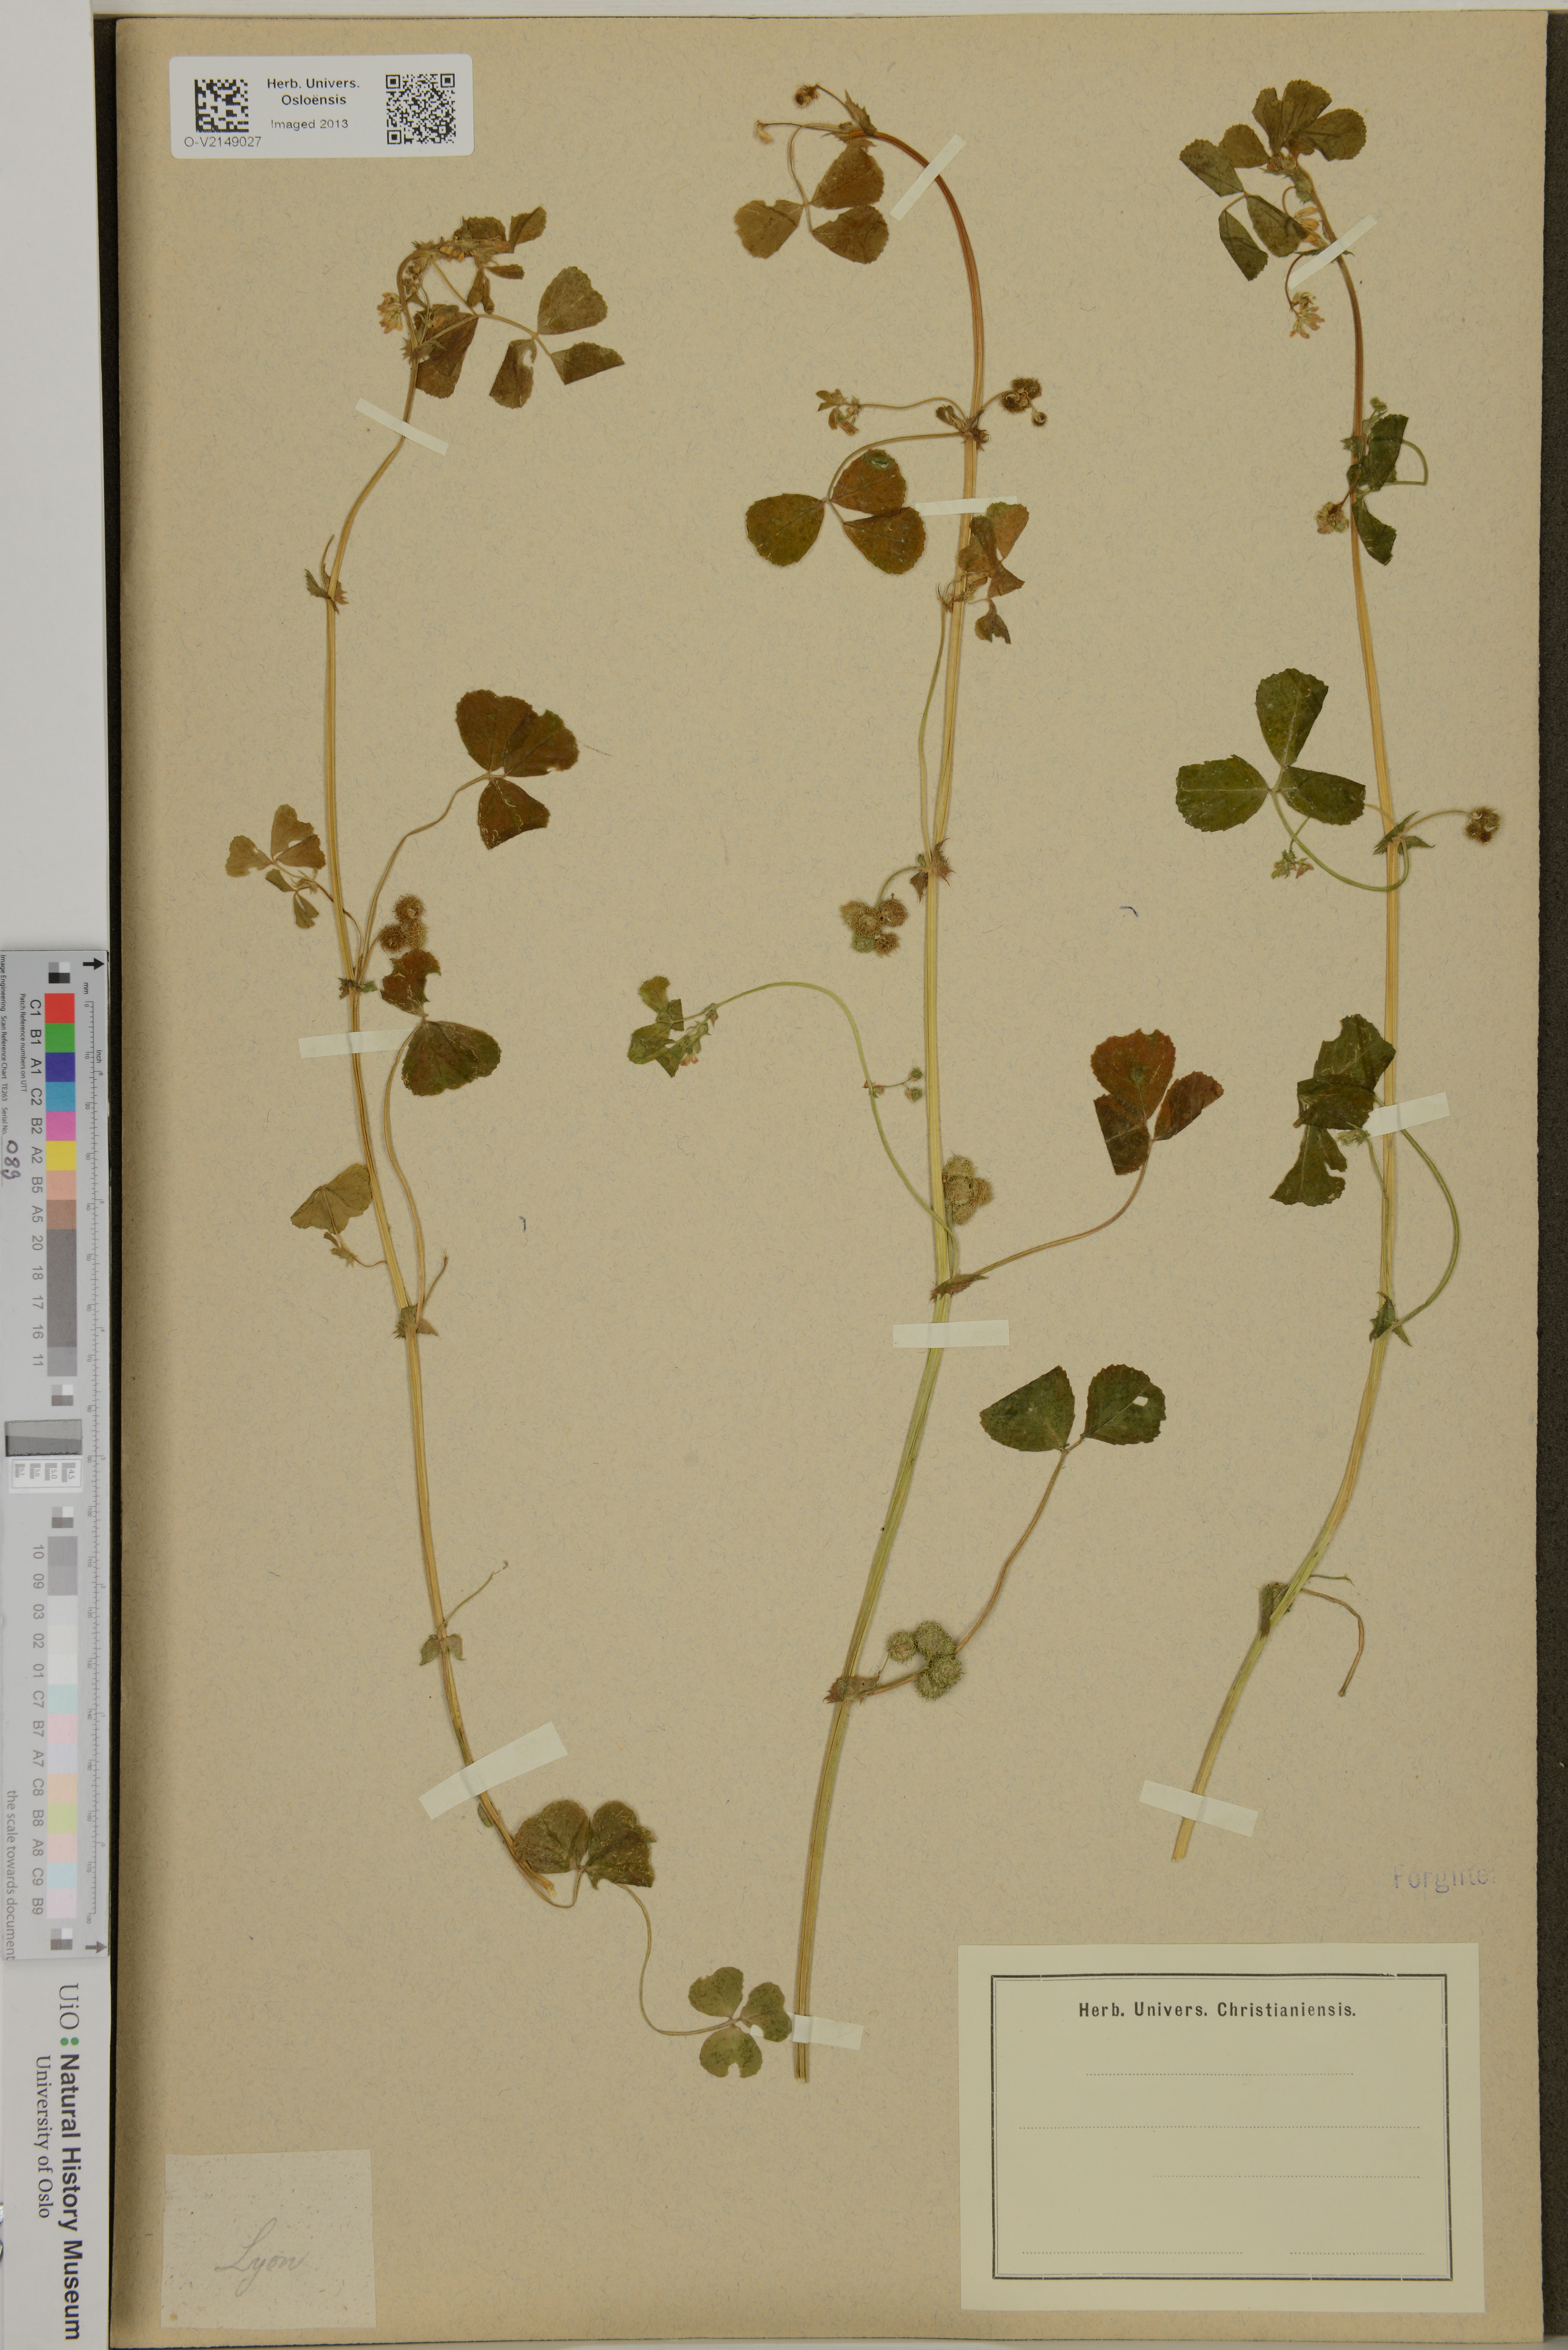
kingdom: Plantae
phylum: Tracheophyta
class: Magnoliopsida
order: Fabales
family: Fabaceae
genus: Medicago
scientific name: Medicago
